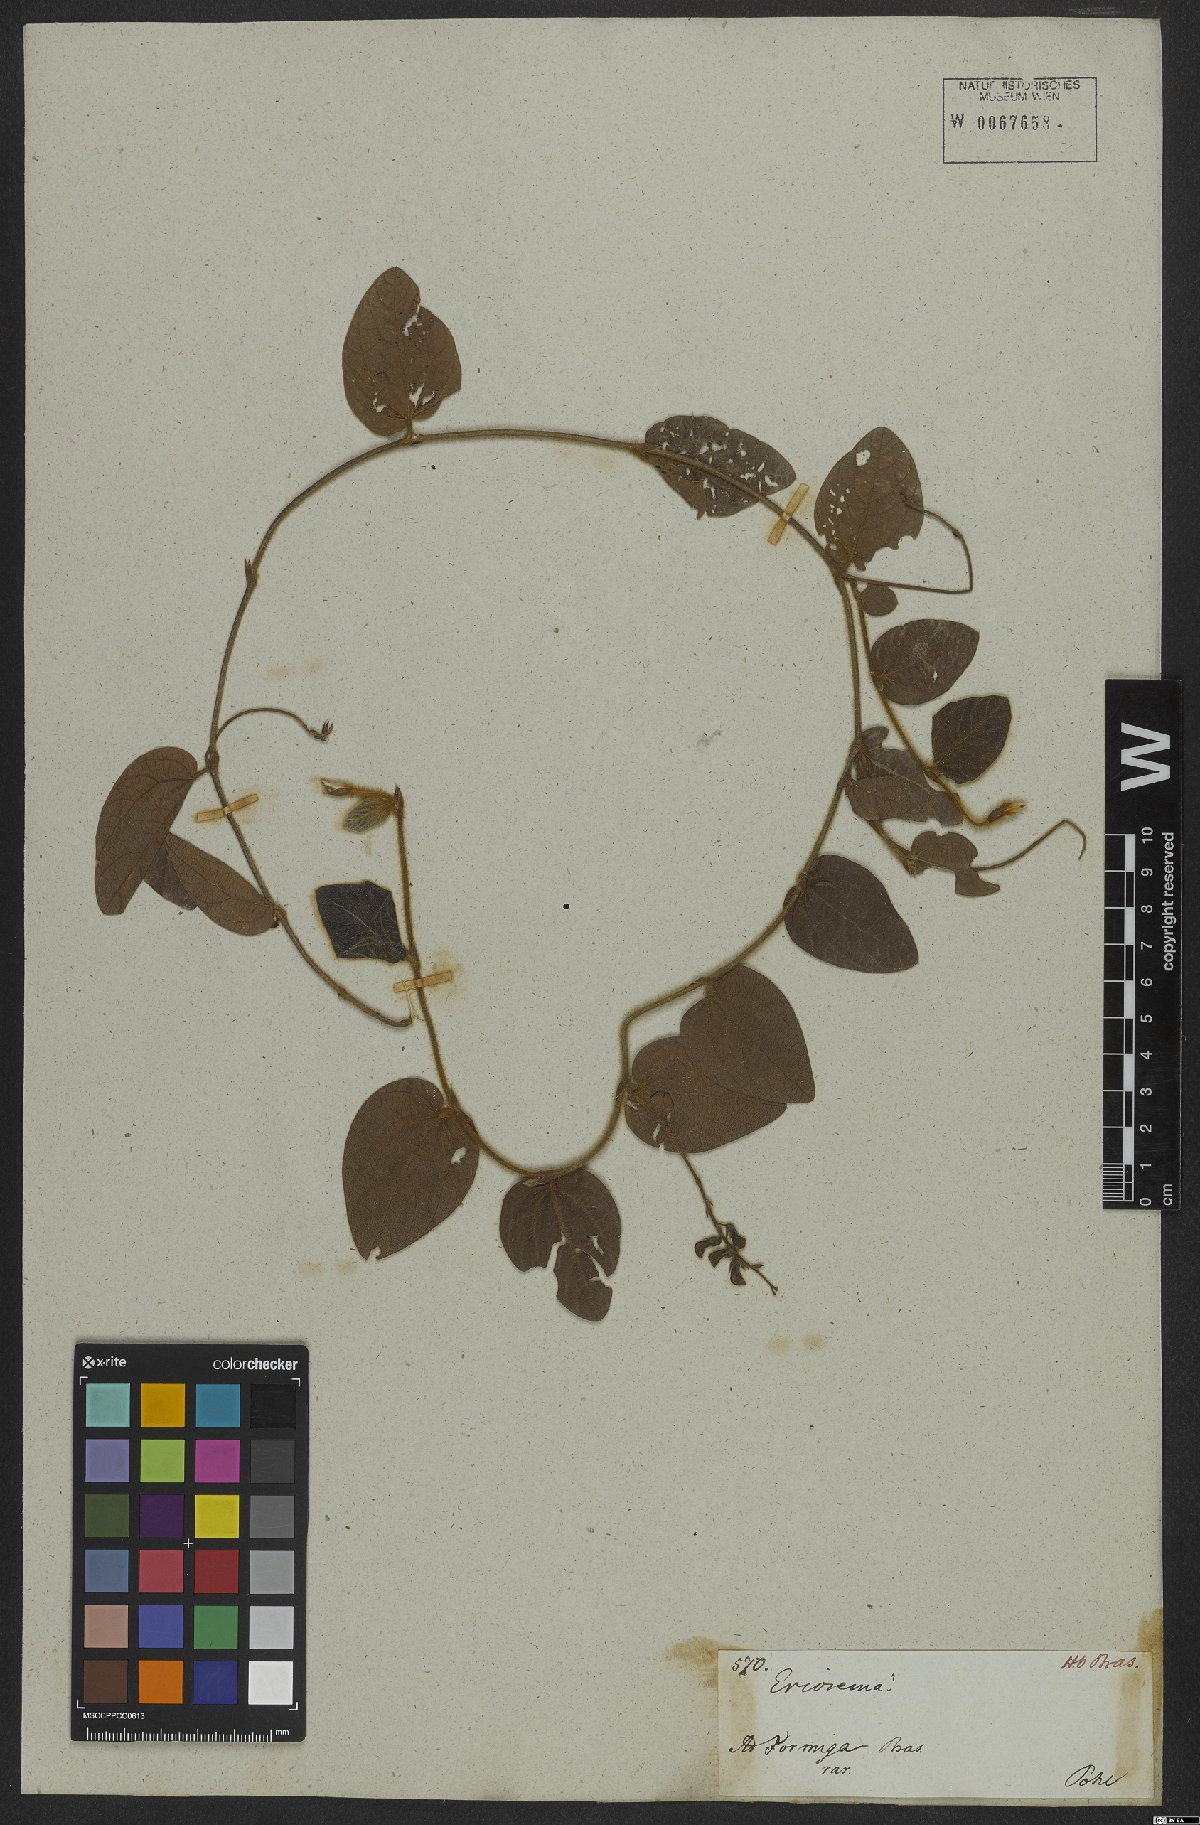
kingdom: Plantae
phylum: Tracheophyta
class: Magnoliopsida
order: Fabales
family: Fabaceae
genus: Eriosema
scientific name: Eriosema heterophyllum
